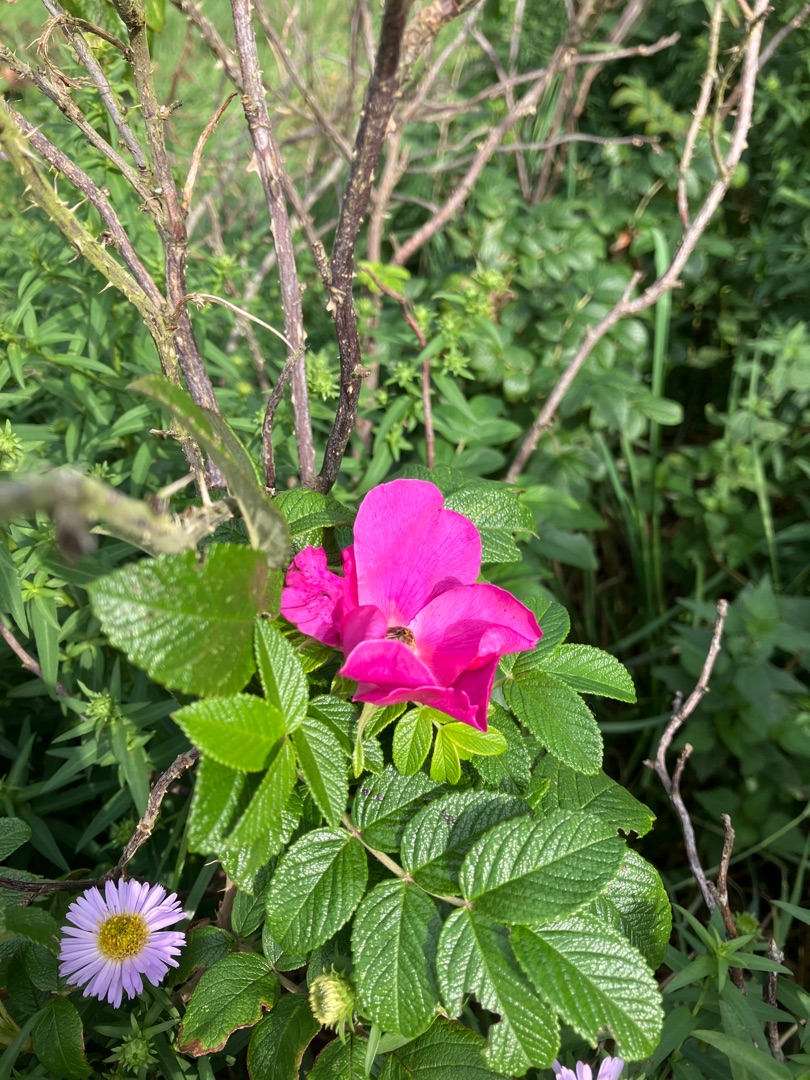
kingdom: Plantae
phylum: Tracheophyta
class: Magnoliopsida
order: Rosales
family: Rosaceae
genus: Rosa
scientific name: Rosa rugosa
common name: Rynket rose
